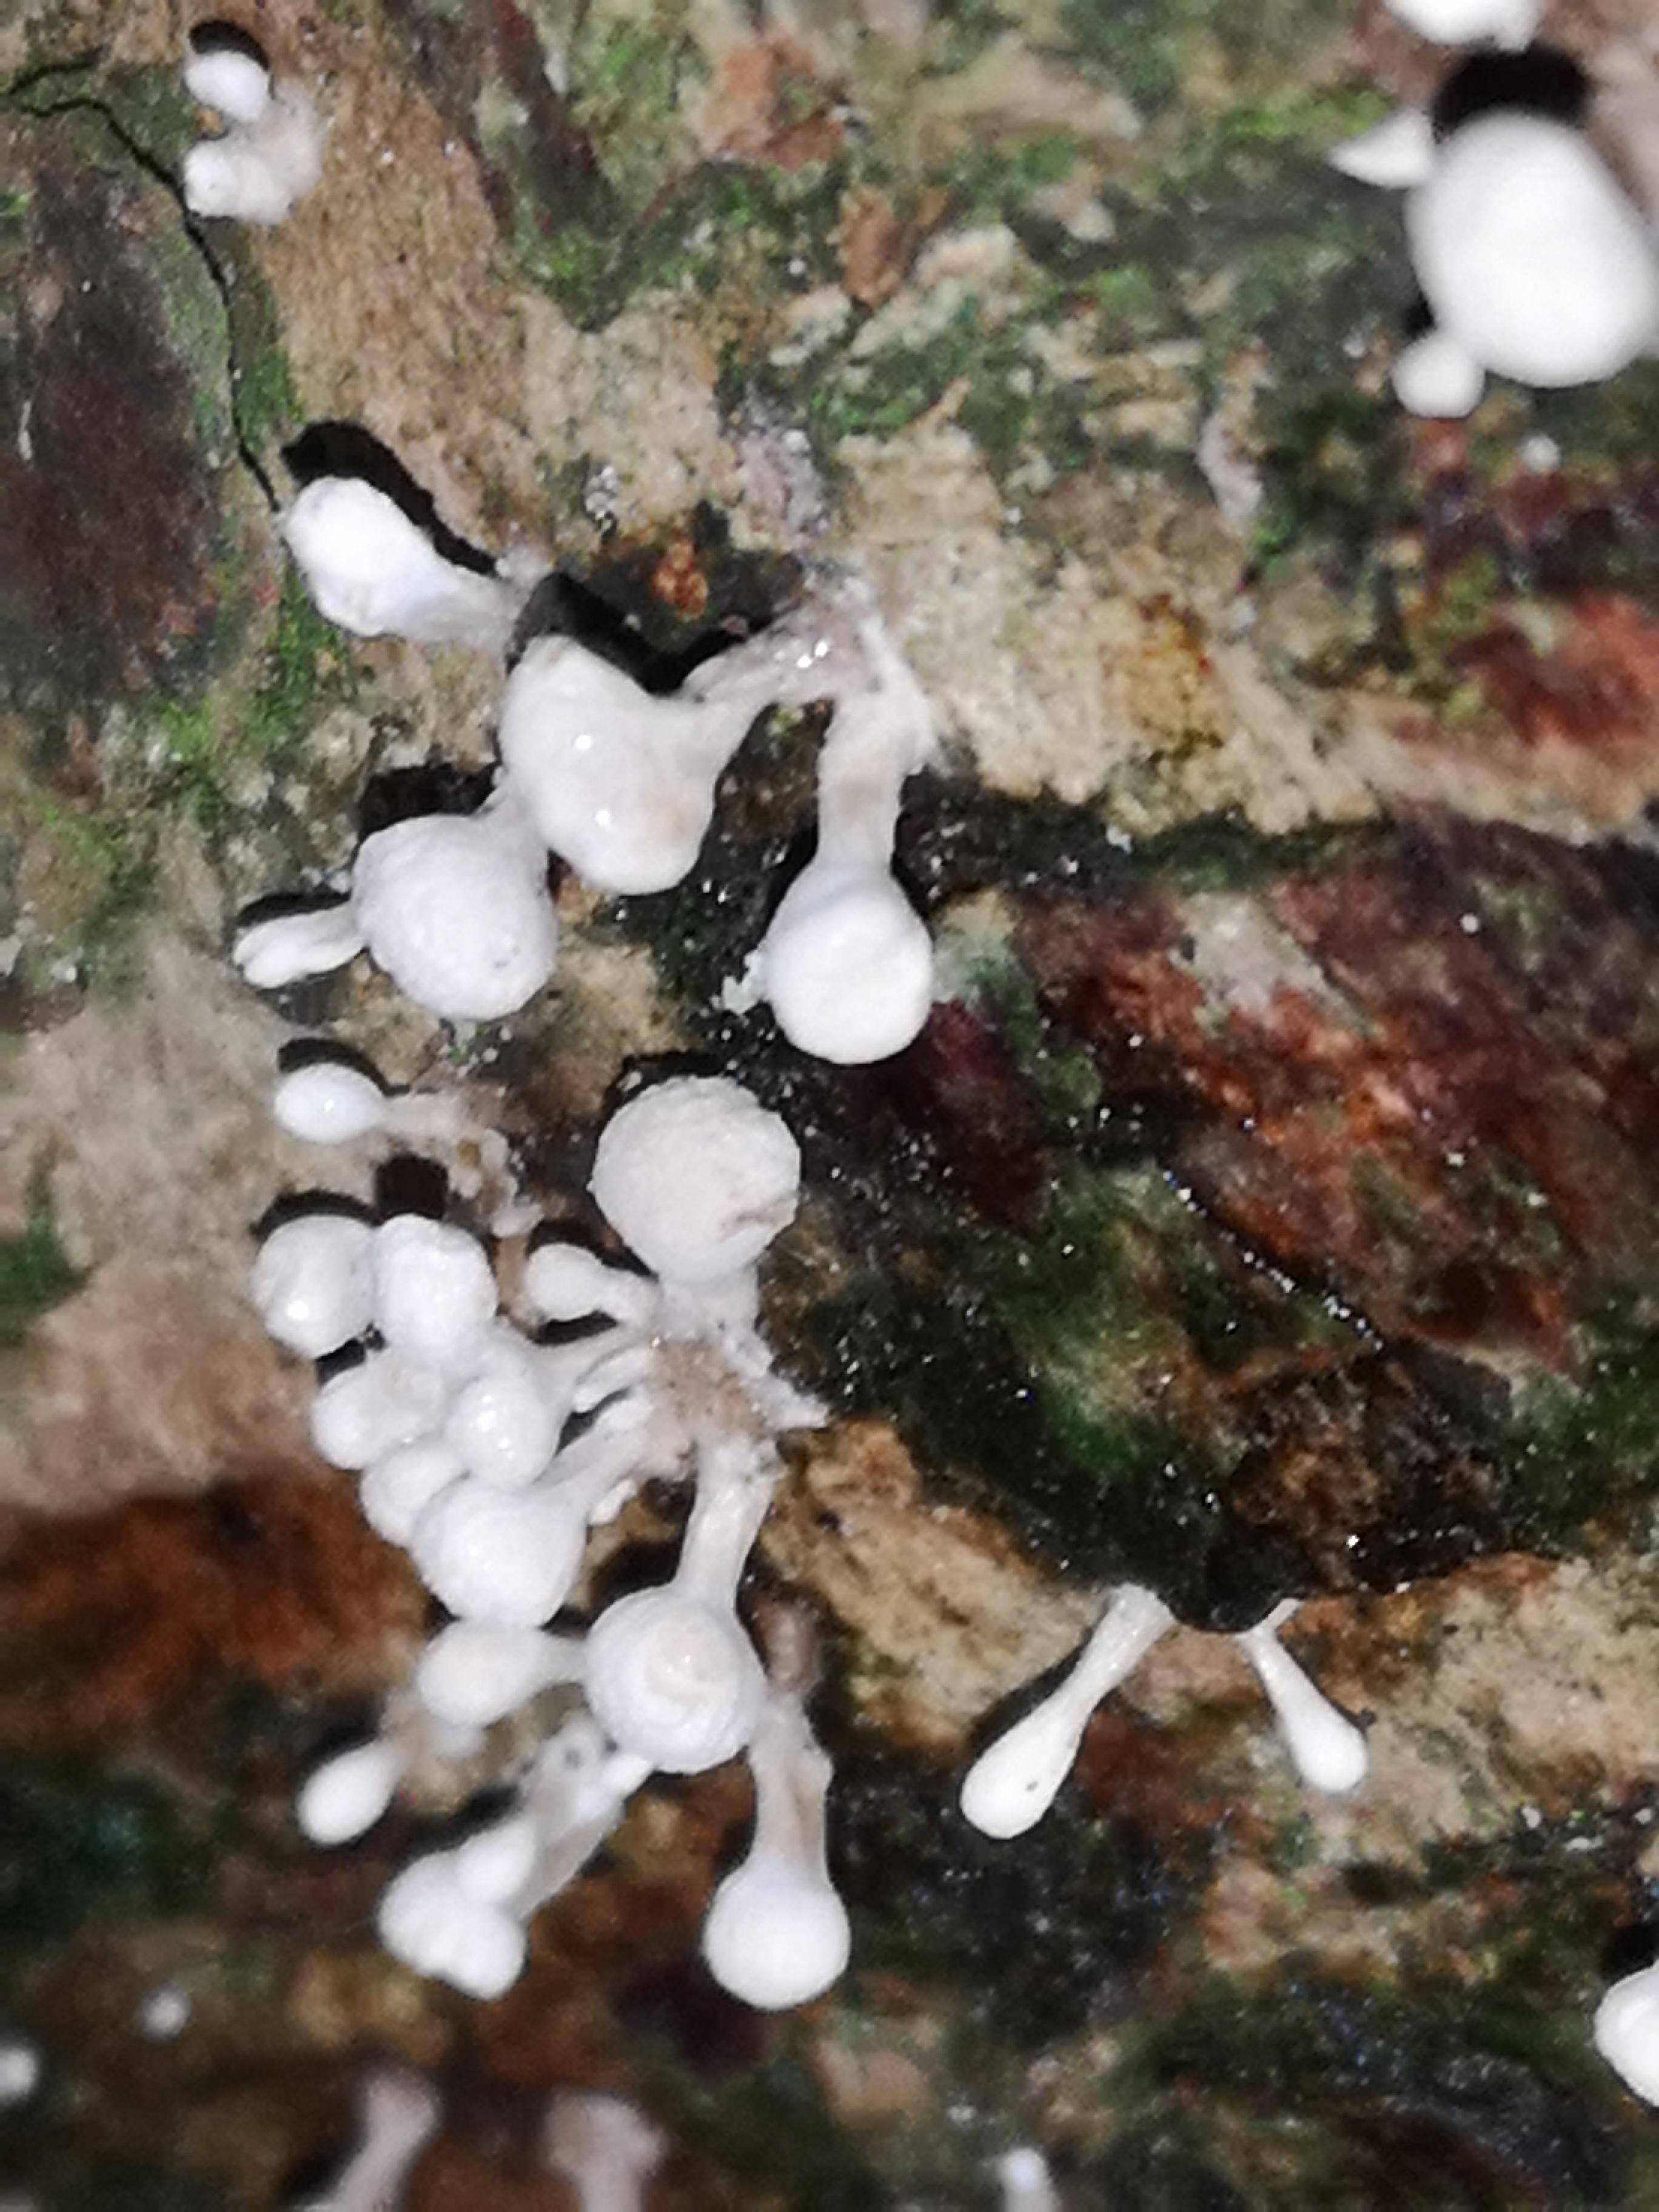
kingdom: Fungi
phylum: Basidiomycota
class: Atractiellomycetes
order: Atractiellales
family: Phleogenaceae
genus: Phleogena
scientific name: Phleogena faginea
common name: pudderkølle
